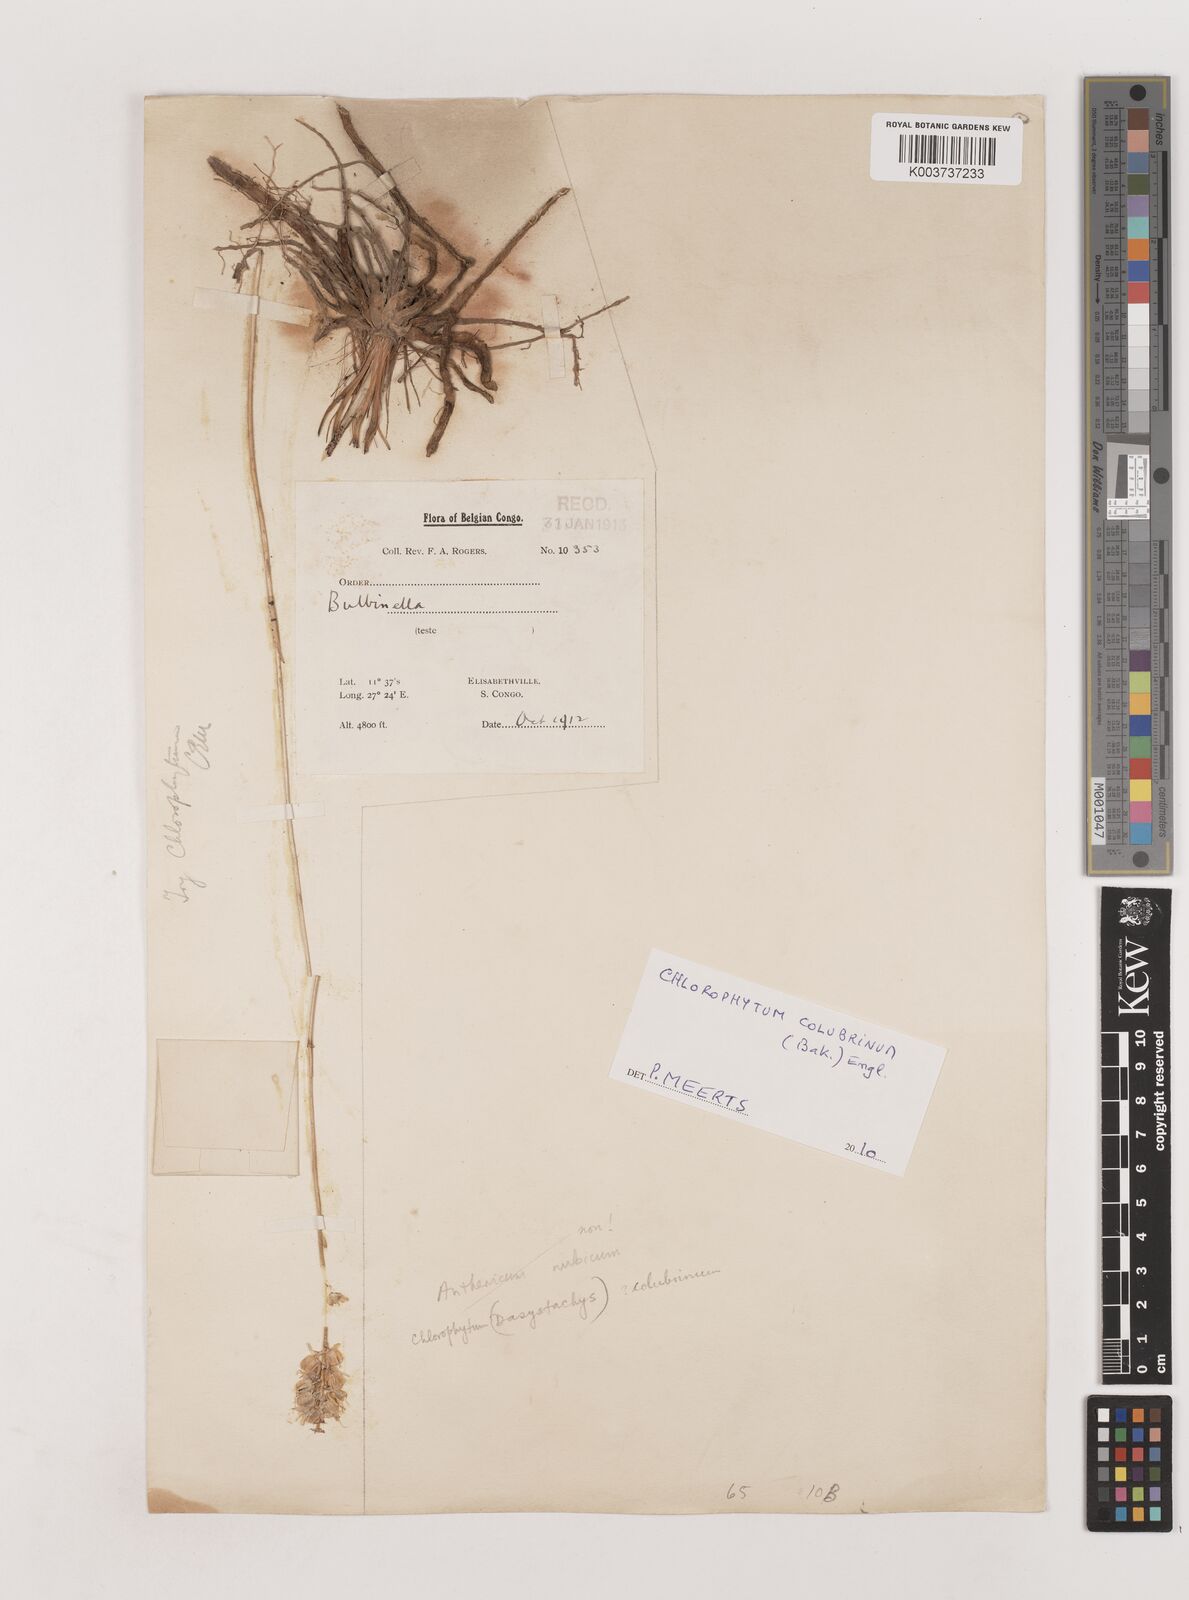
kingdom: Plantae
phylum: Tracheophyta
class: Liliopsida
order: Asparagales
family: Asparagaceae
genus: Chlorophytum
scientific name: Chlorophytum colubrinum
